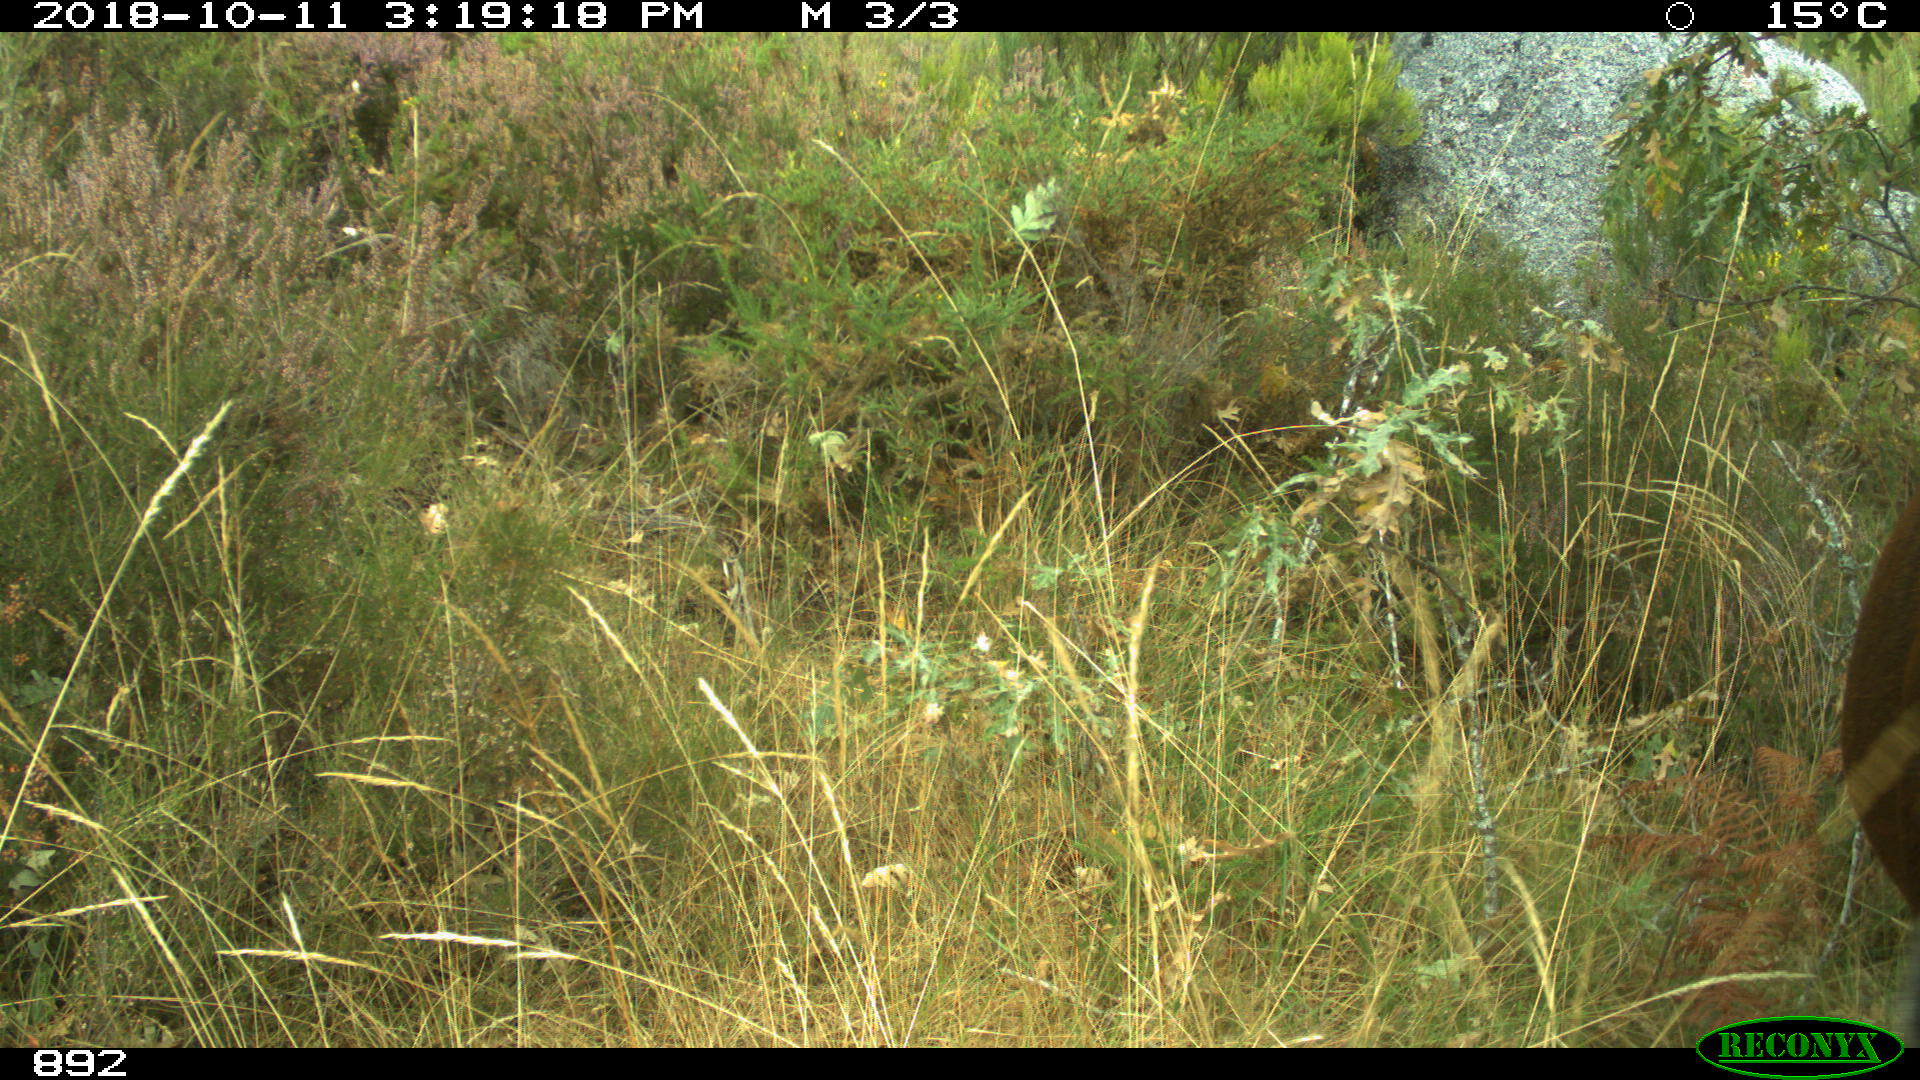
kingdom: Animalia
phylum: Chordata
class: Mammalia
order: Perissodactyla
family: Equidae
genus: Equus
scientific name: Equus caballus
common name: Horse
